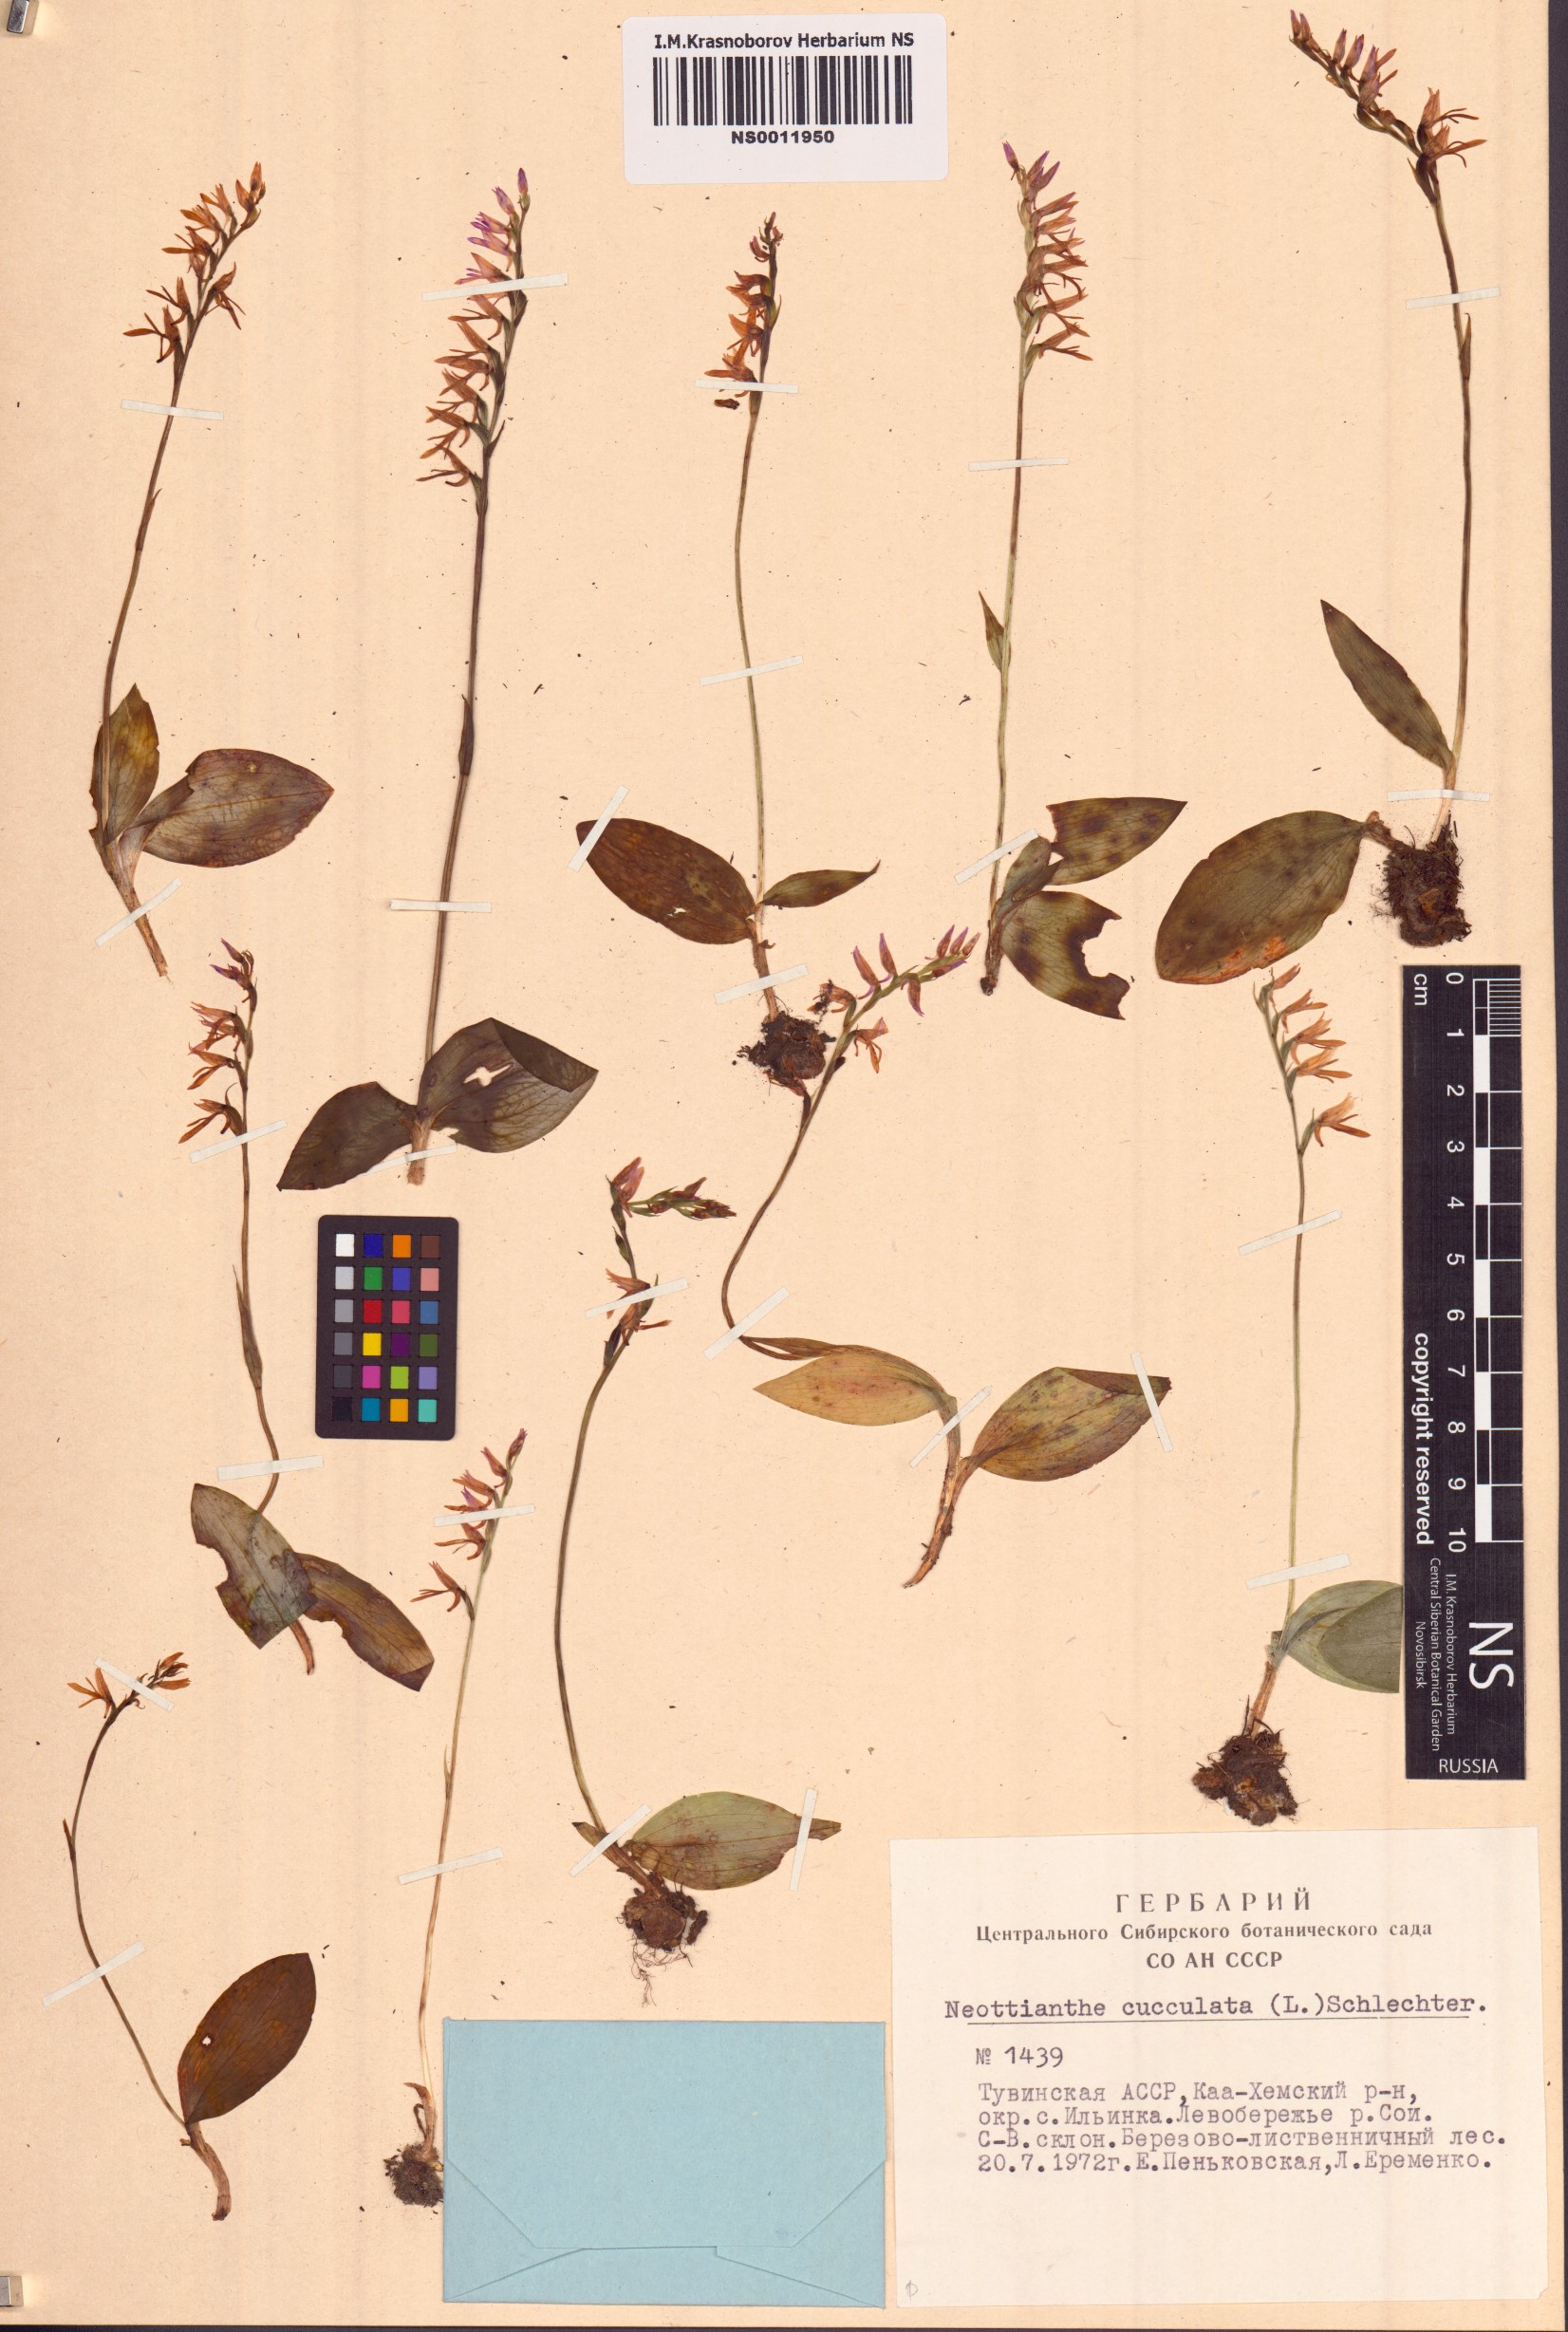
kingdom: Plantae
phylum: Tracheophyta
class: Liliopsida
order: Asparagales
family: Orchidaceae
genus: Hemipilia
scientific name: Hemipilia cucullata
